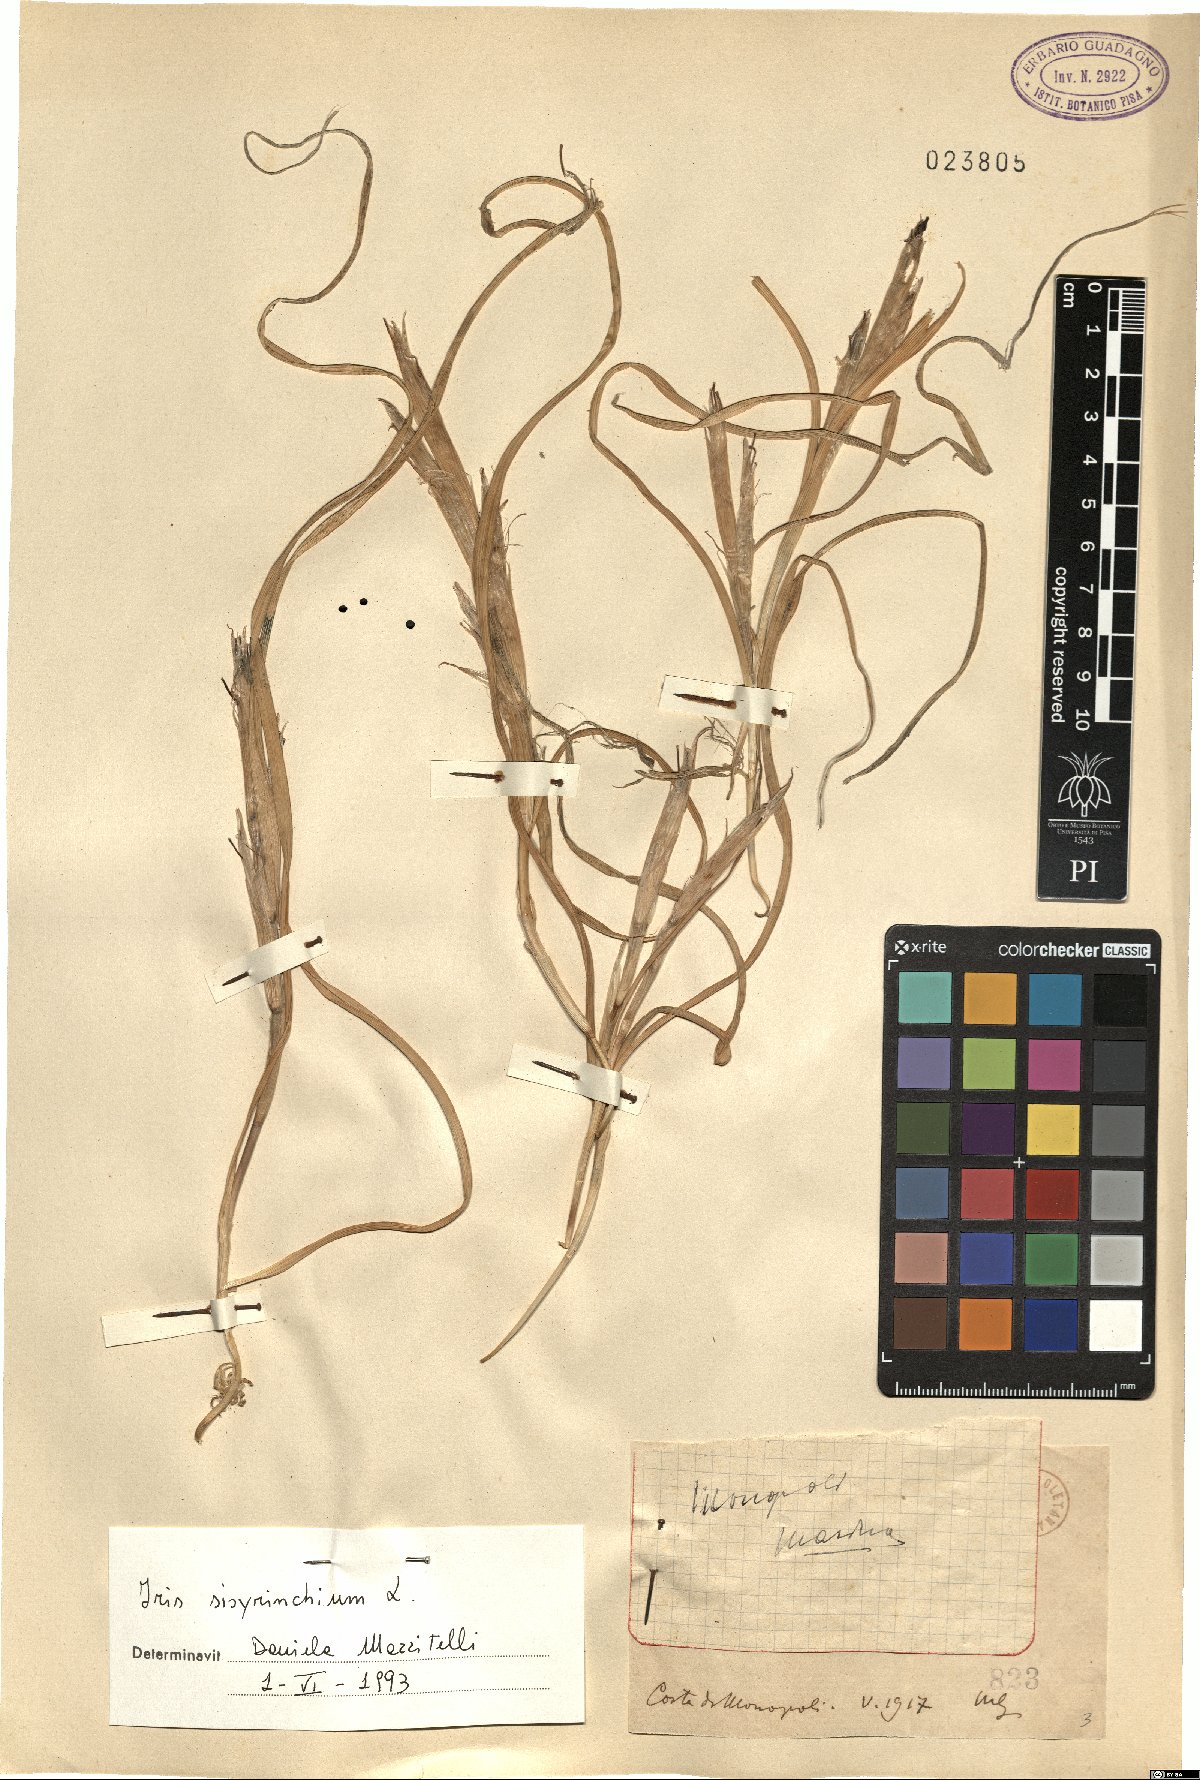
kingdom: Plantae
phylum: Tracheophyta
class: Liliopsida
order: Asparagales
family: Iridaceae
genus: Moraea
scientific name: Moraea sisyrinchium
